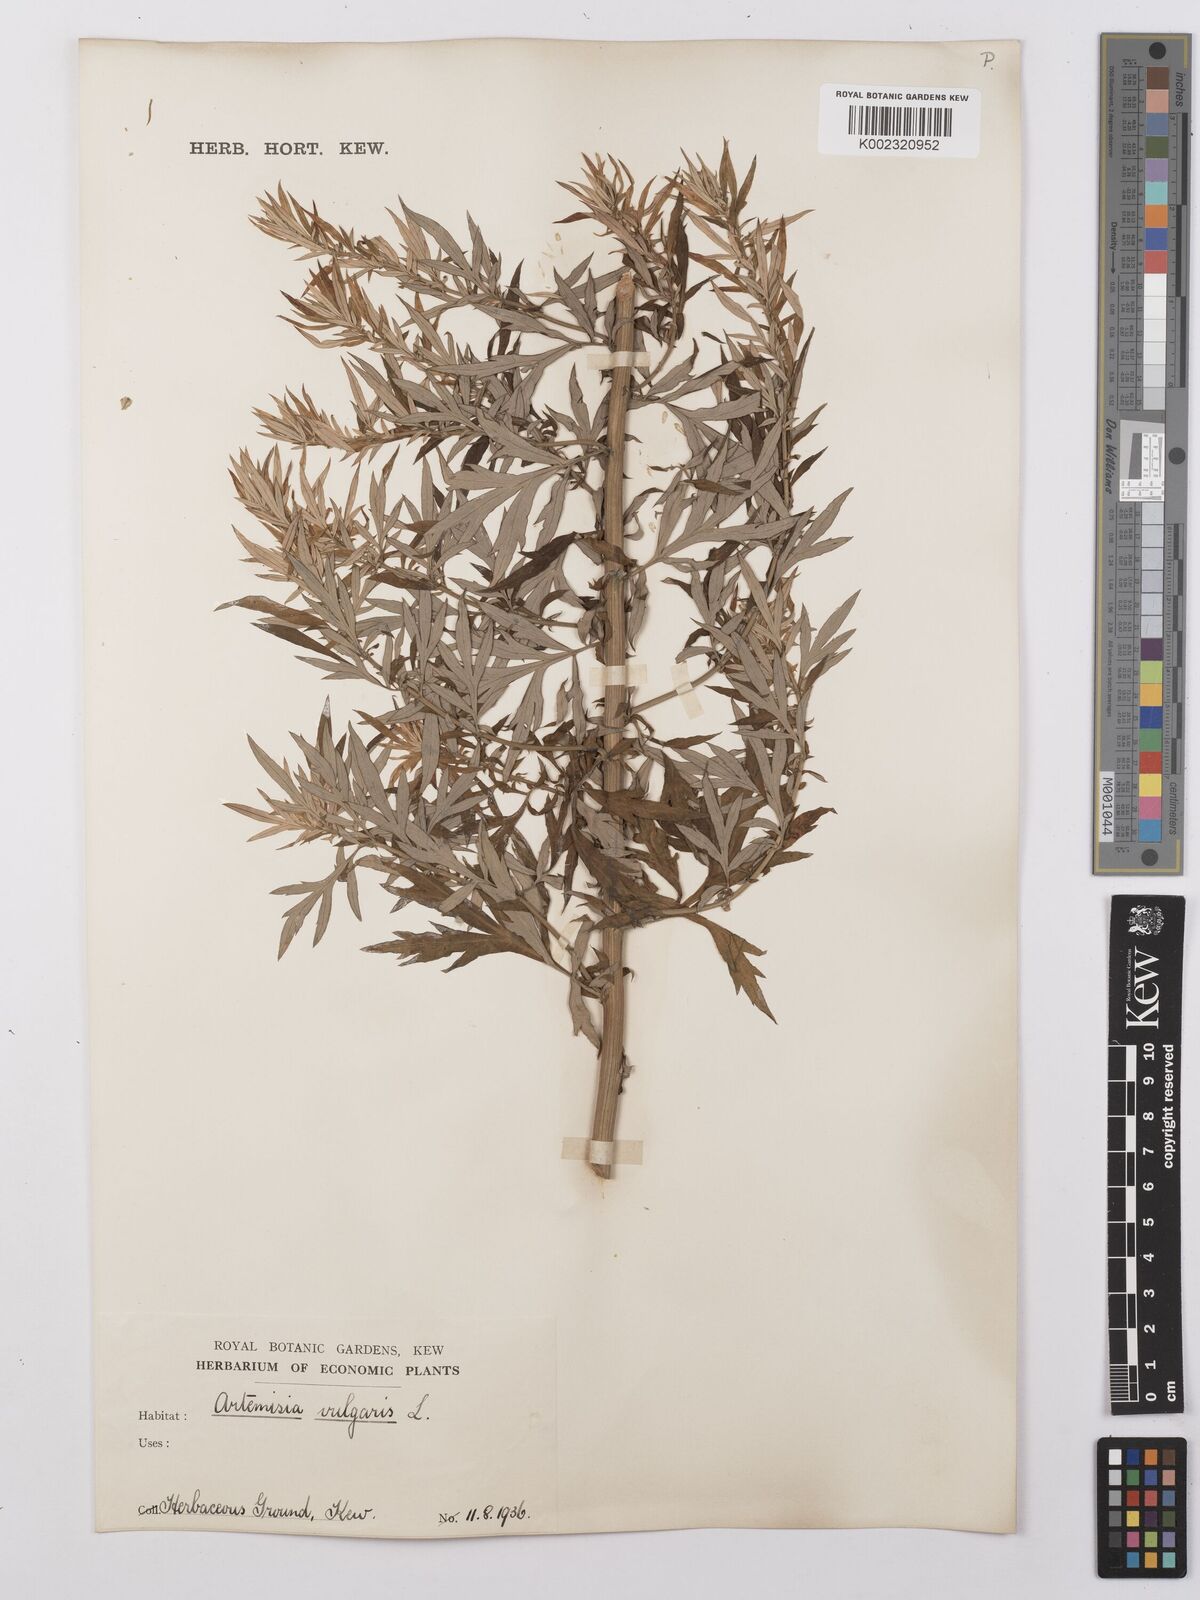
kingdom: Plantae
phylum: Tracheophyta
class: Magnoliopsida
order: Asterales
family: Asteraceae
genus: Artemisia
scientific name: Artemisia vulgaris
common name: Mugwort
